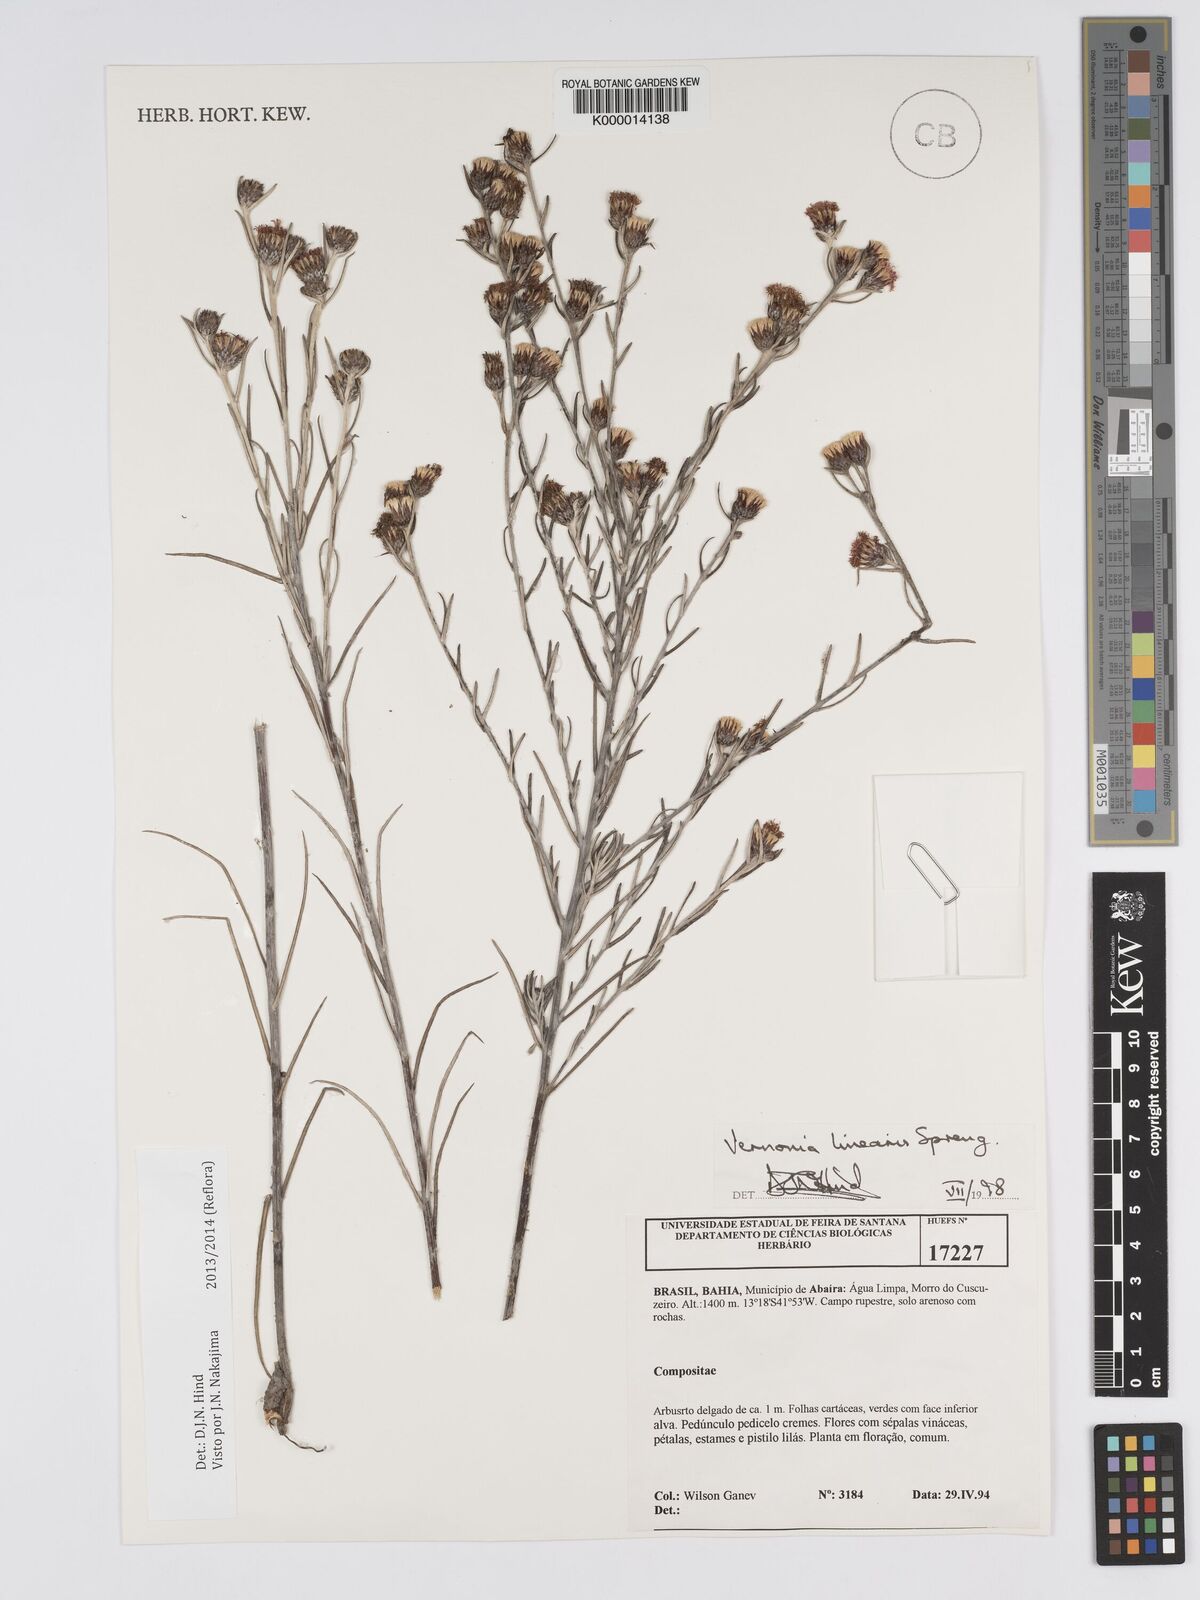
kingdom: Plantae
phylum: Tracheophyta
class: Magnoliopsida
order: Asterales
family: Asteraceae
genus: Lessingianthus
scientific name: Lessingianthus linearis
